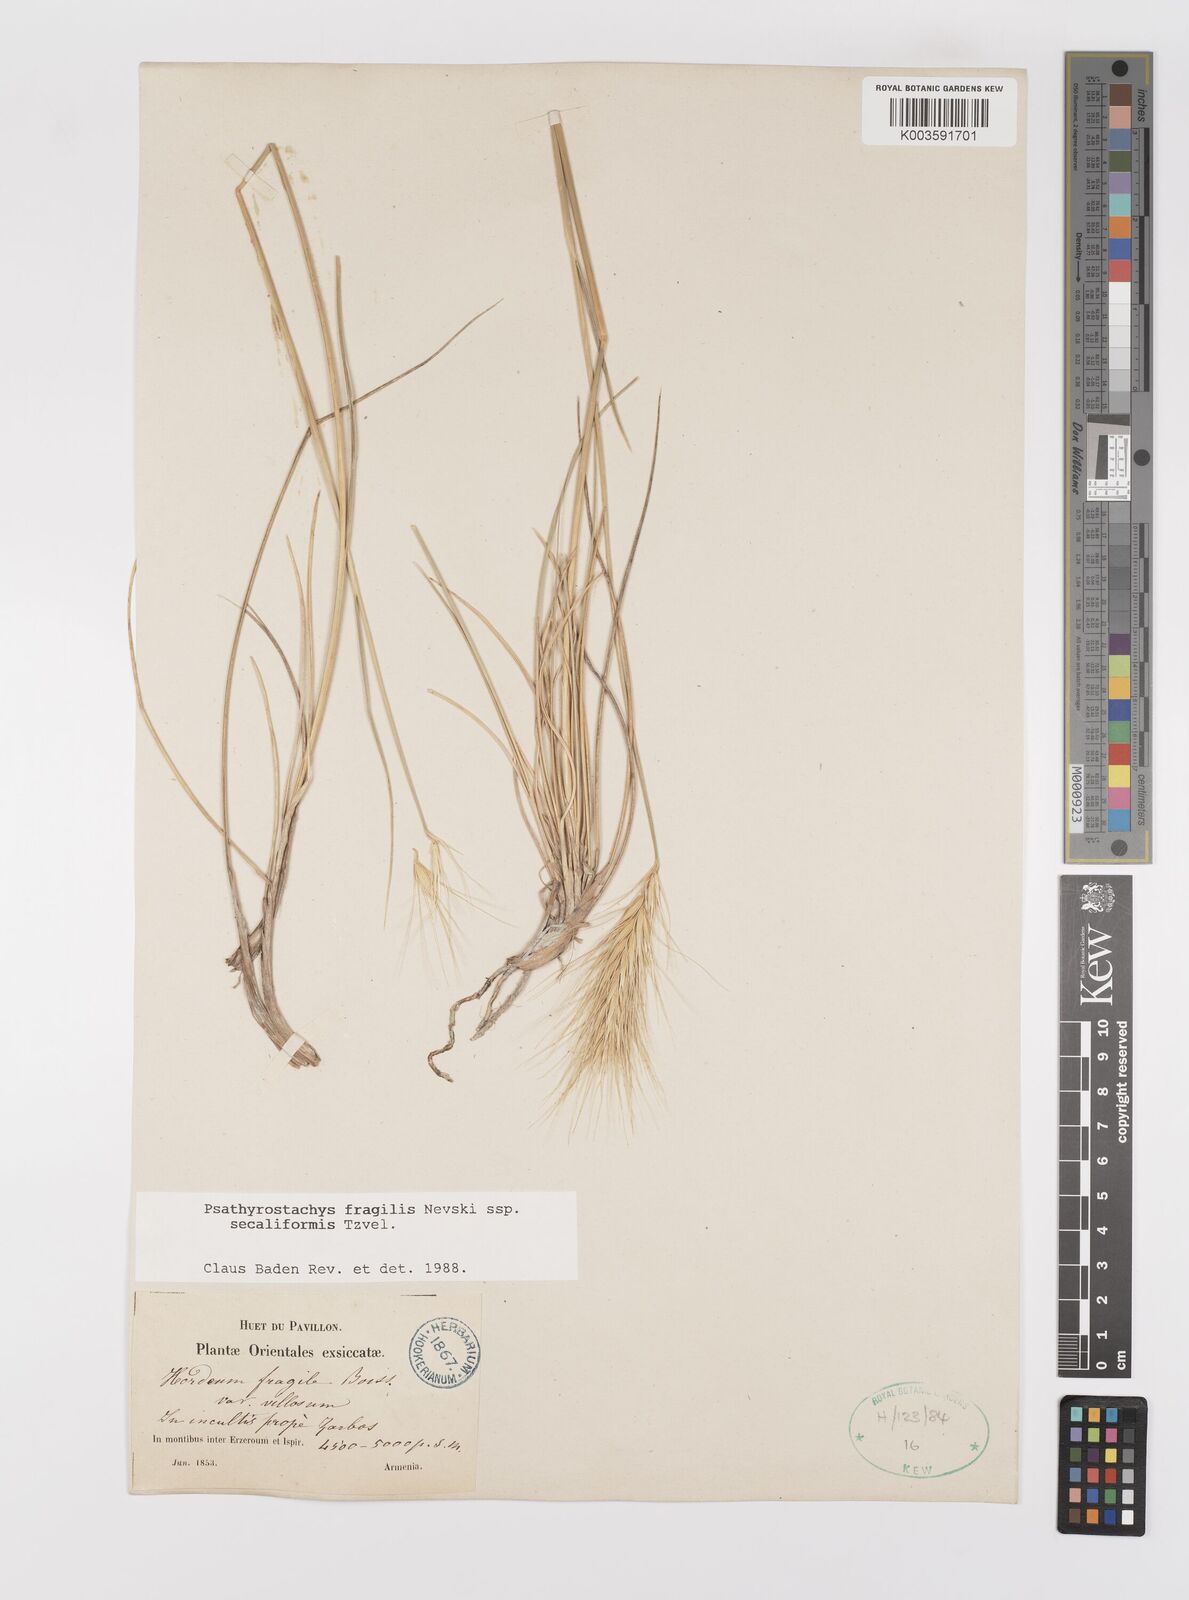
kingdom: Plantae
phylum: Tracheophyta
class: Liliopsida
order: Poales
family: Poaceae
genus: Psathyrostachys
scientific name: Psathyrostachys fragilis
